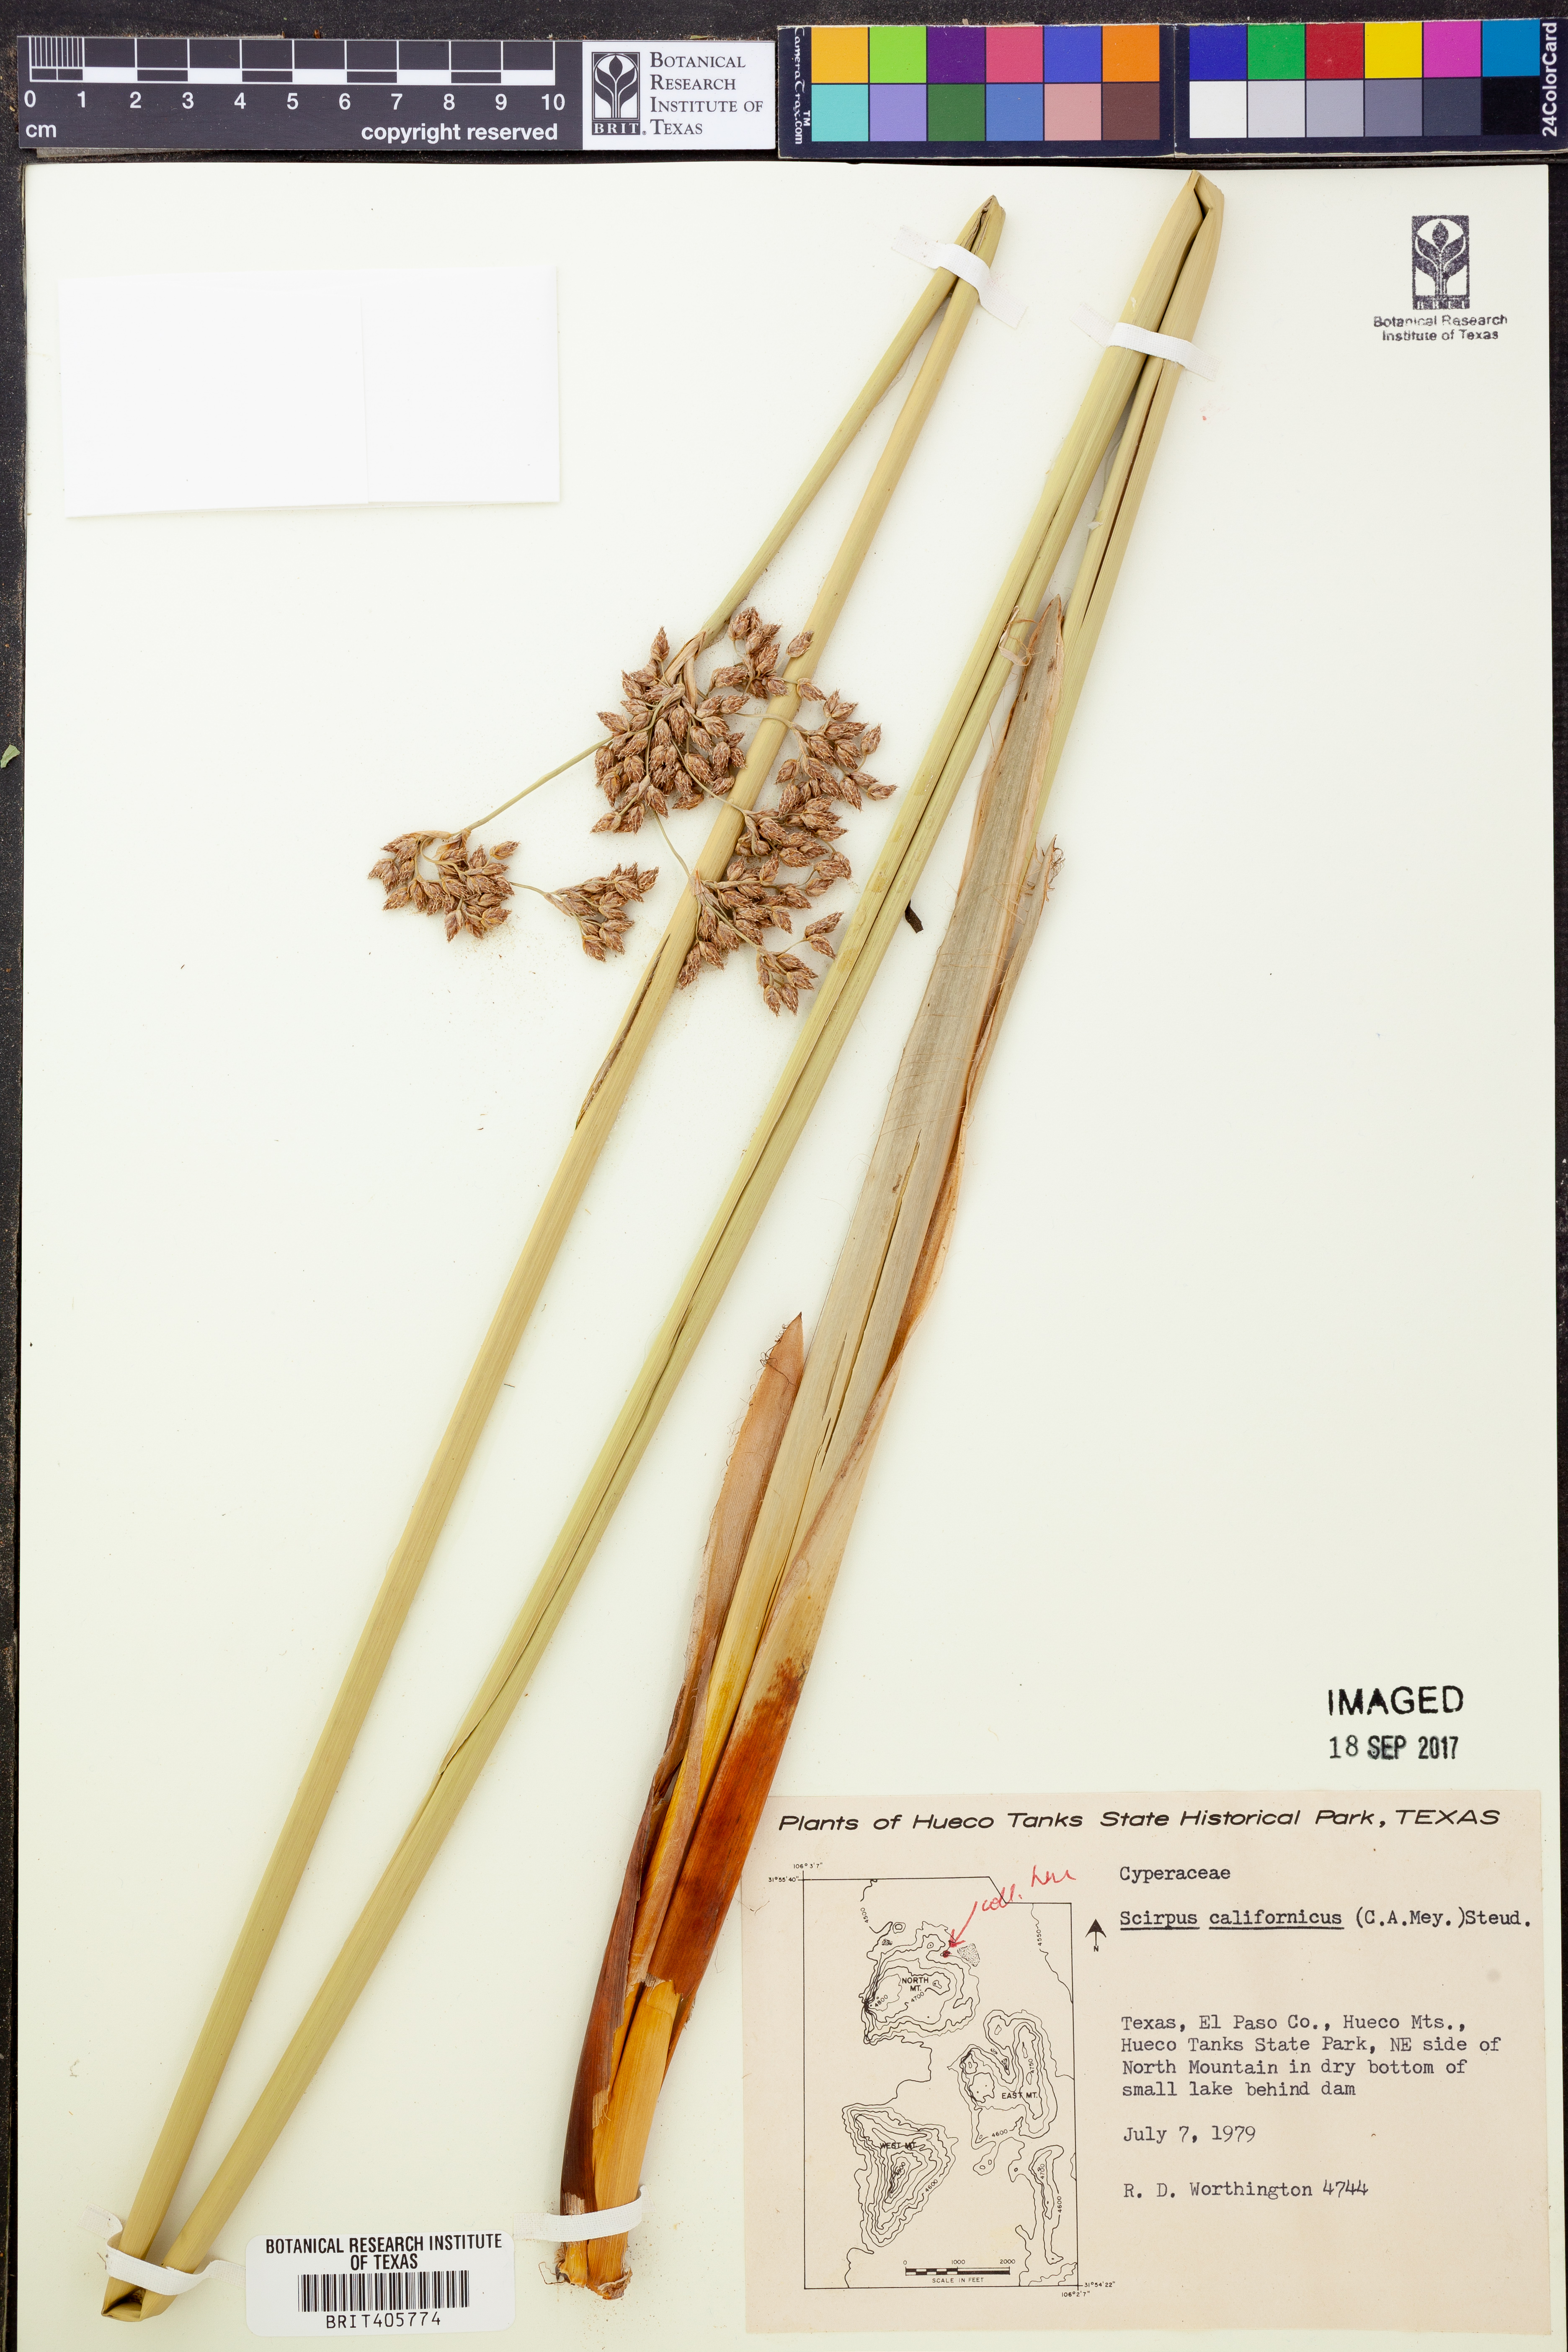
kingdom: Plantae
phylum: Tracheophyta
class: Liliopsida
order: Poales
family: Cyperaceae
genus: Schoenoplectus
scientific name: Schoenoplectus californicus
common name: California bulrush
